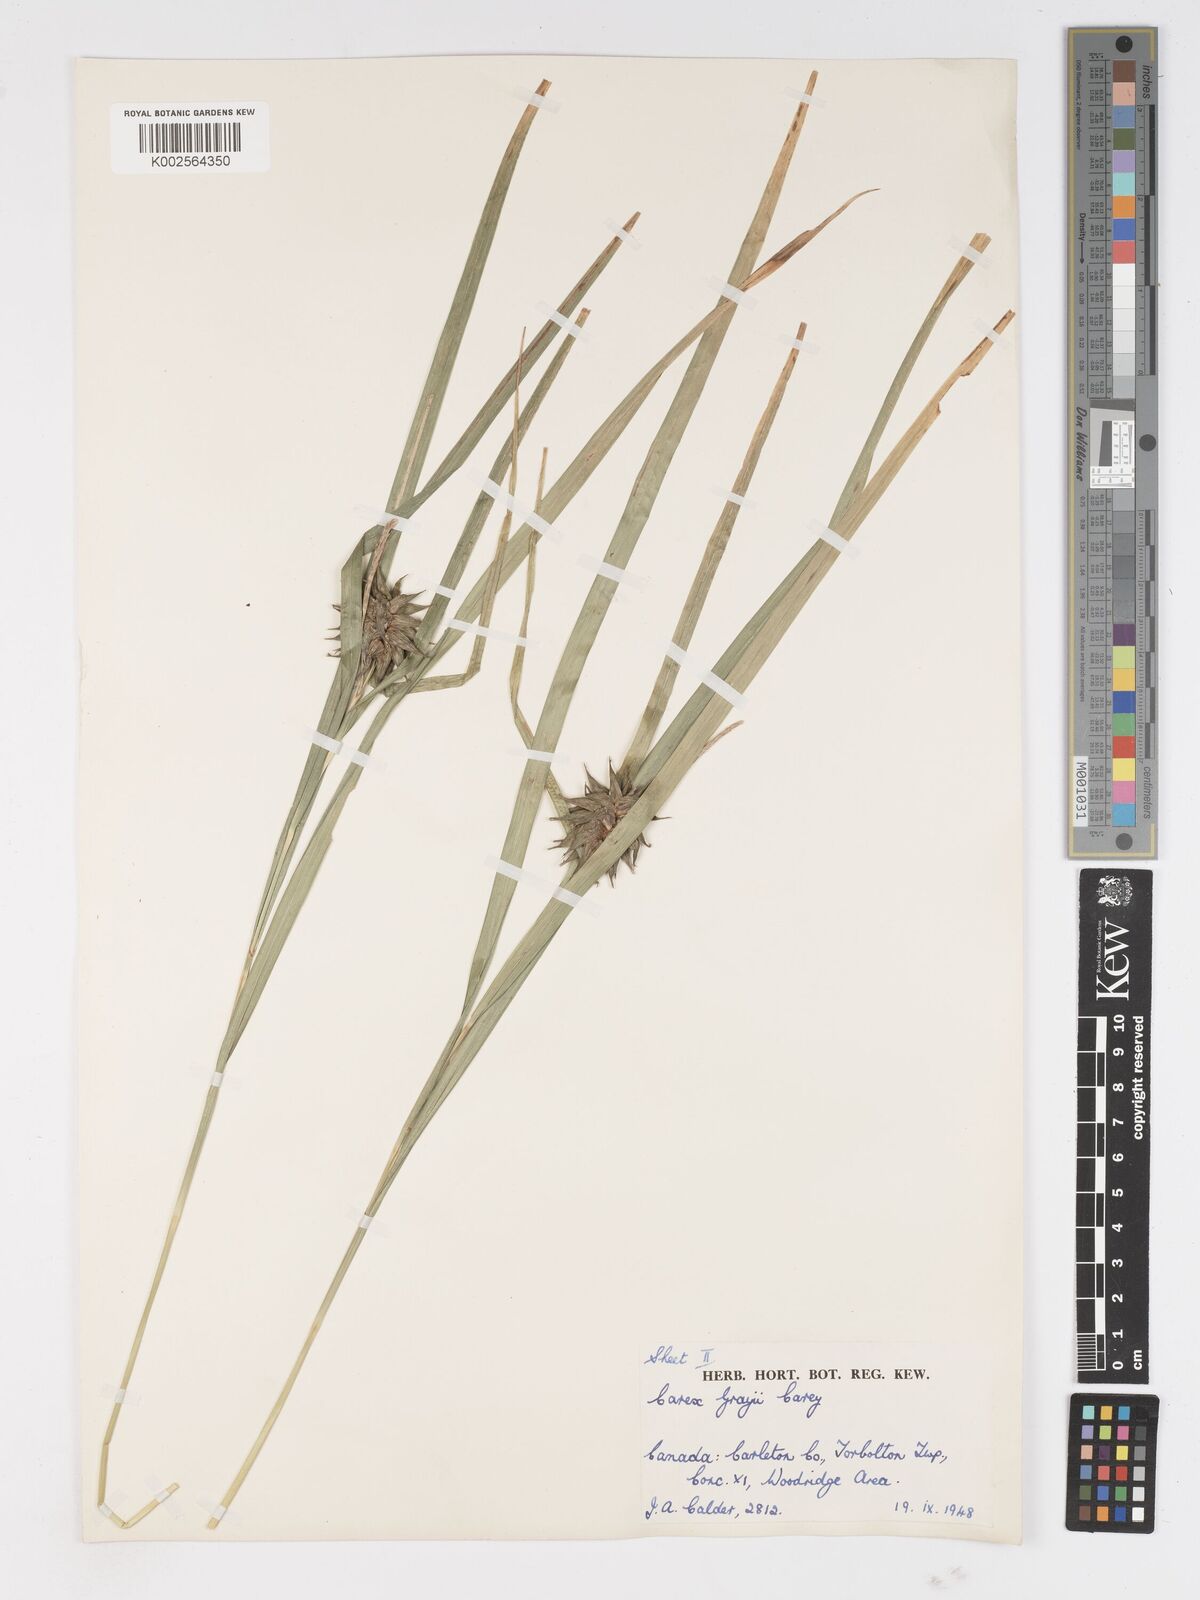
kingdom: Plantae
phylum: Tracheophyta
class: Liliopsida
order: Poales
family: Cyperaceae
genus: Carex
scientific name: Carex grayi
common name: Asa gray's sedge
